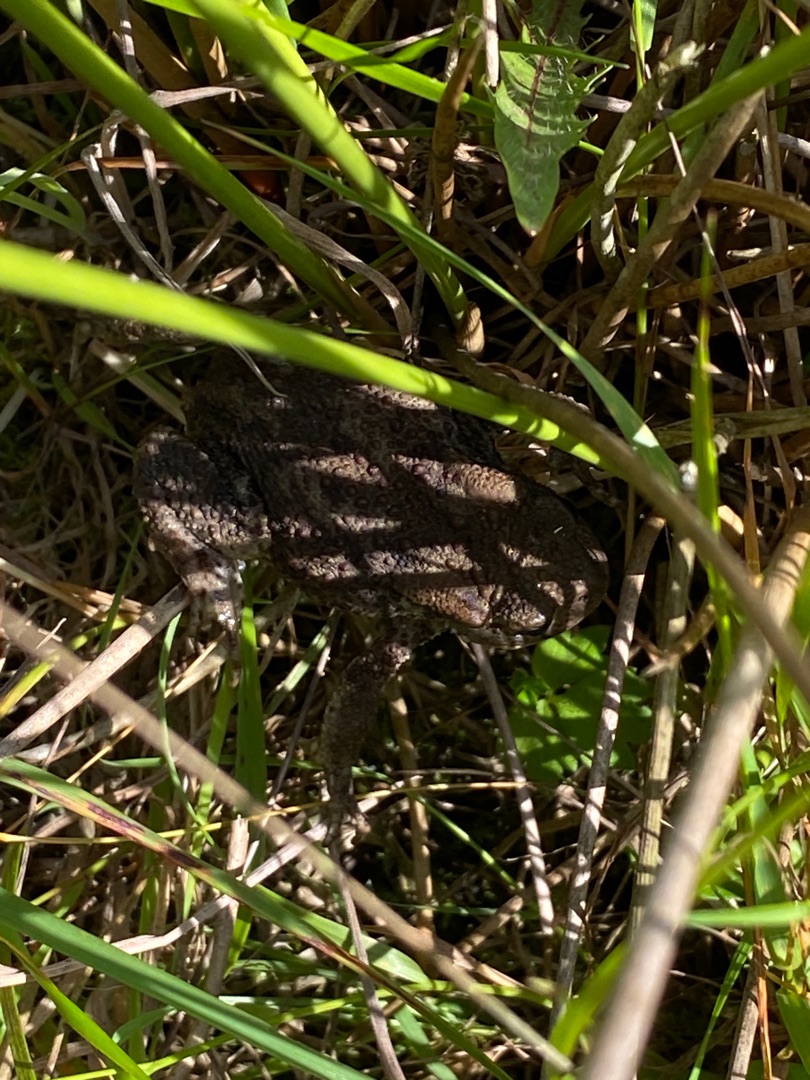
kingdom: Animalia
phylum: Chordata
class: Amphibia
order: Anura
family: Bufonidae
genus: Bufo
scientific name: Bufo bufo
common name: Skrubtudse
